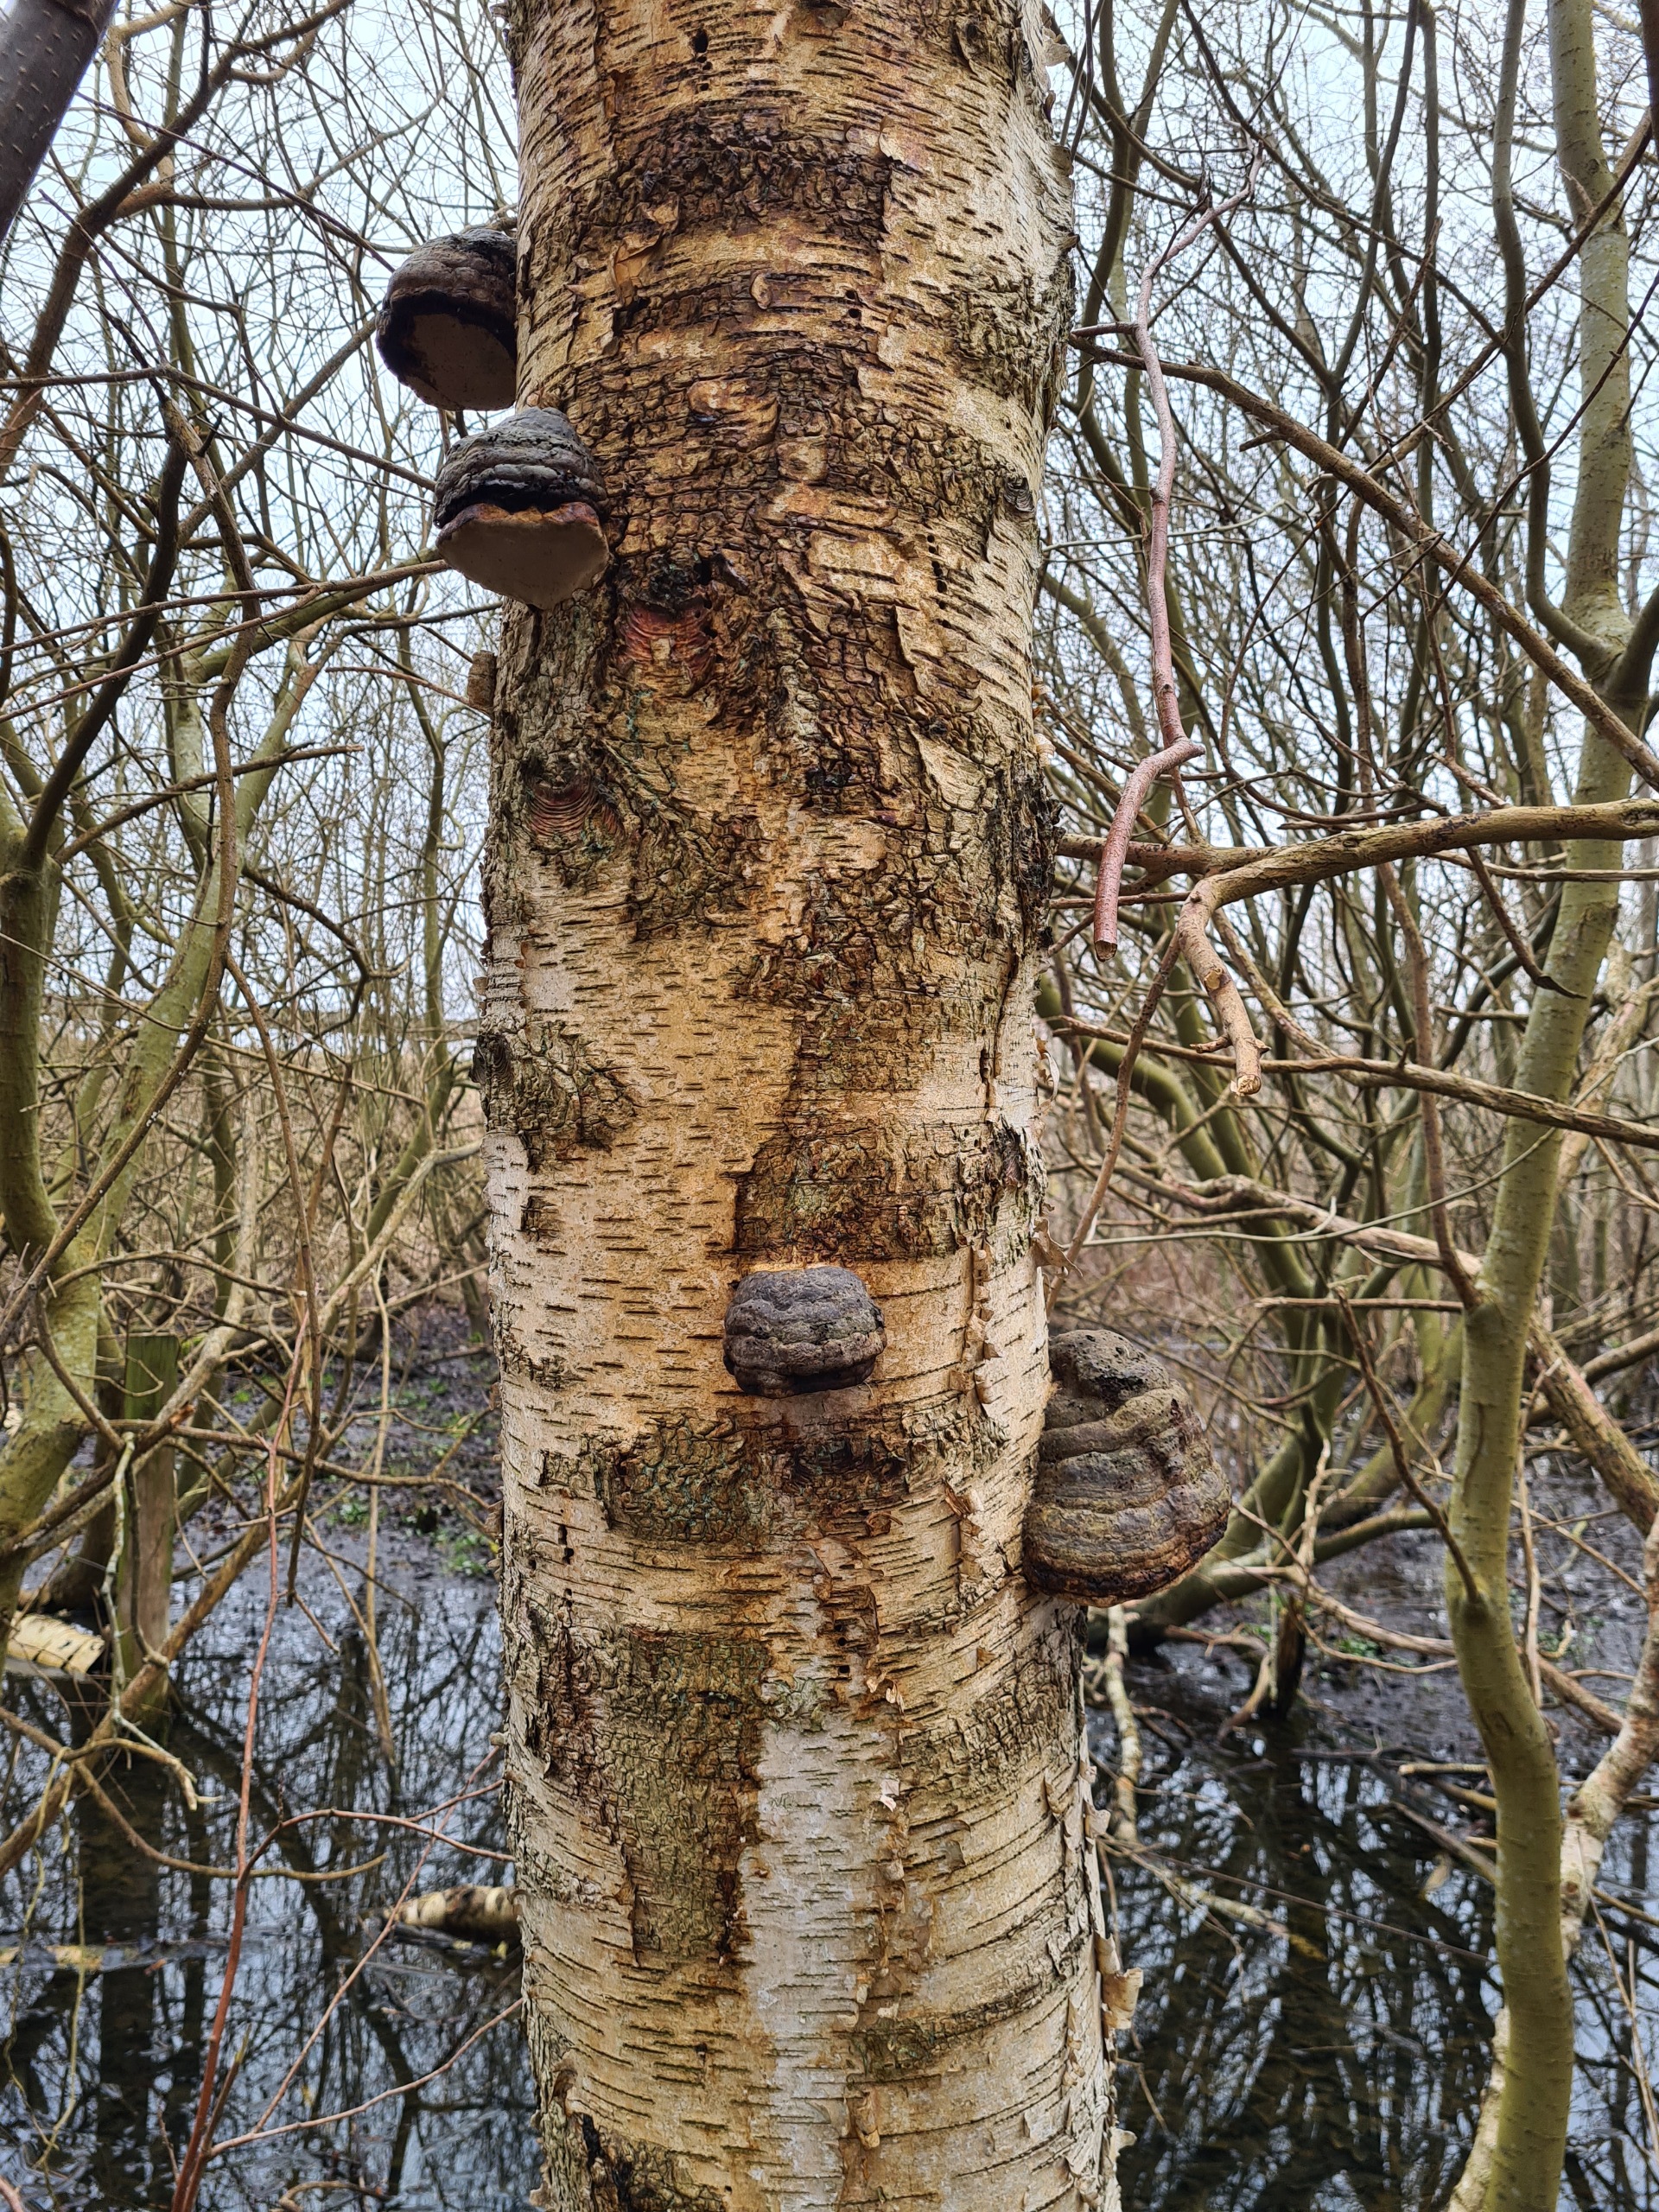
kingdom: Fungi
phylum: Basidiomycota
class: Agaricomycetes
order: Polyporales
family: Polyporaceae
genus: Fomes
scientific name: Fomes fomentarius
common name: Tøndersvamp
